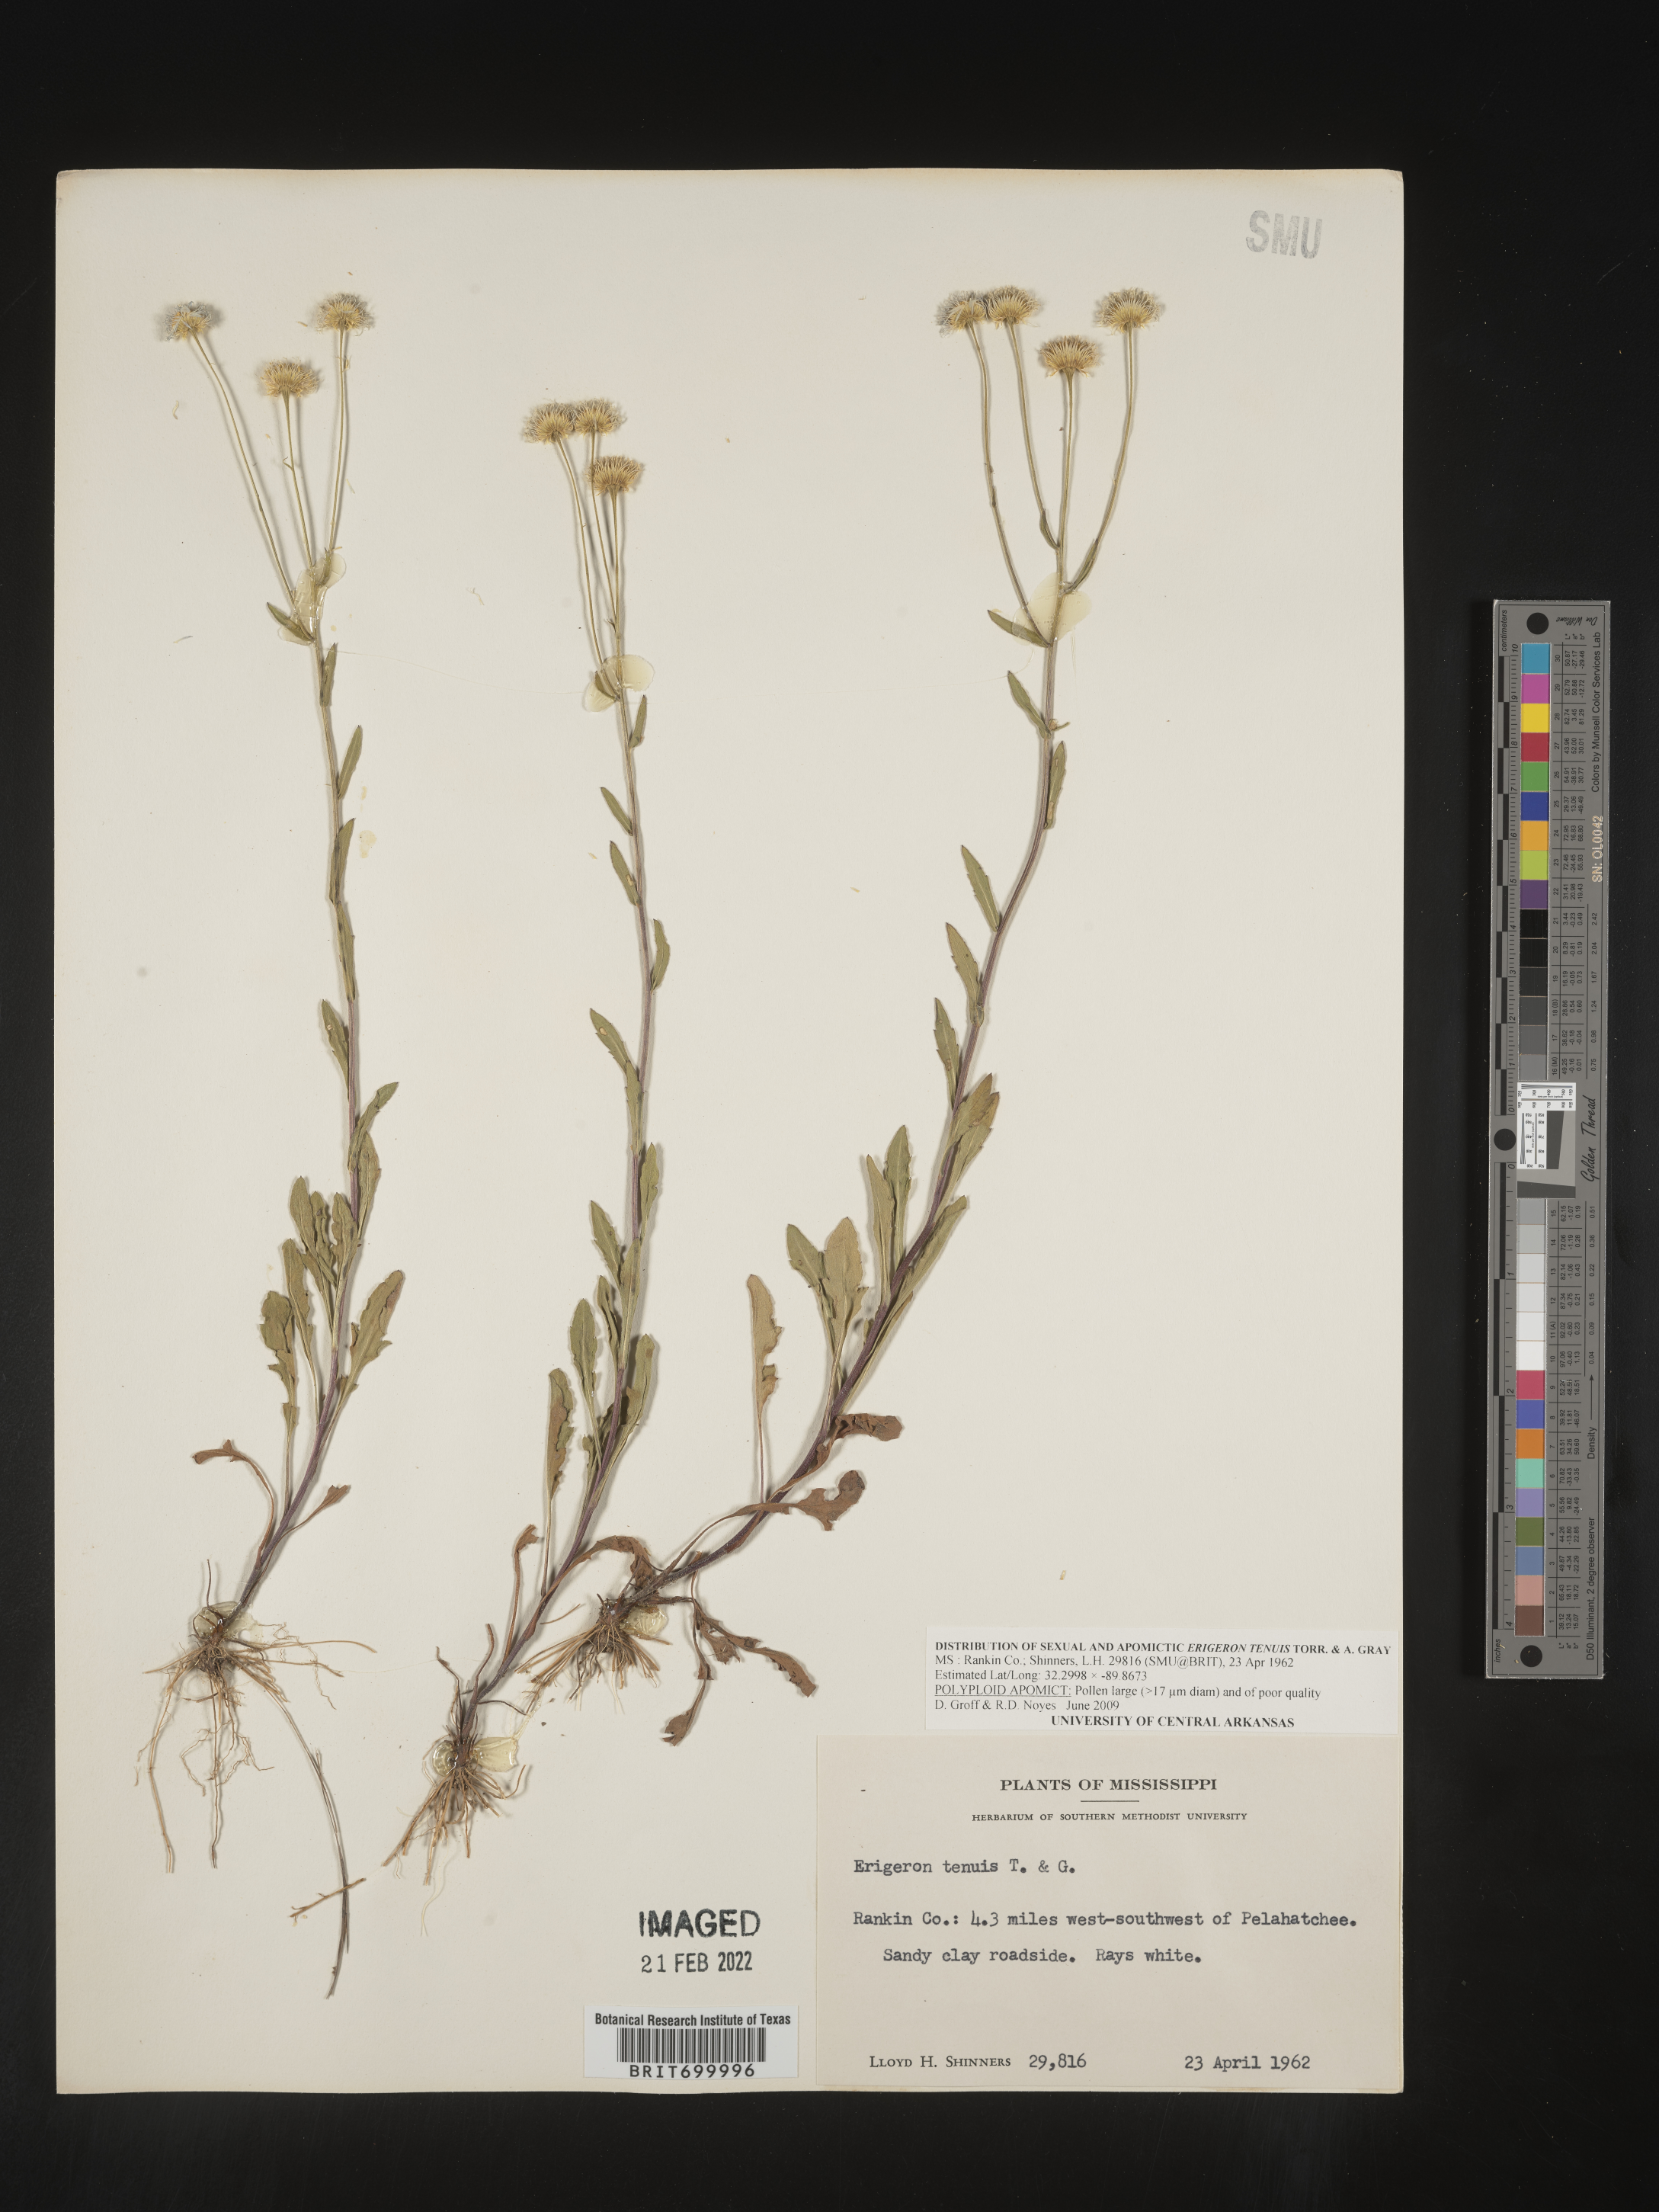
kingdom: Plantae
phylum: Tracheophyta
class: Magnoliopsida
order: Asterales
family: Asteraceae
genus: Erigeron
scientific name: Erigeron tenuis
